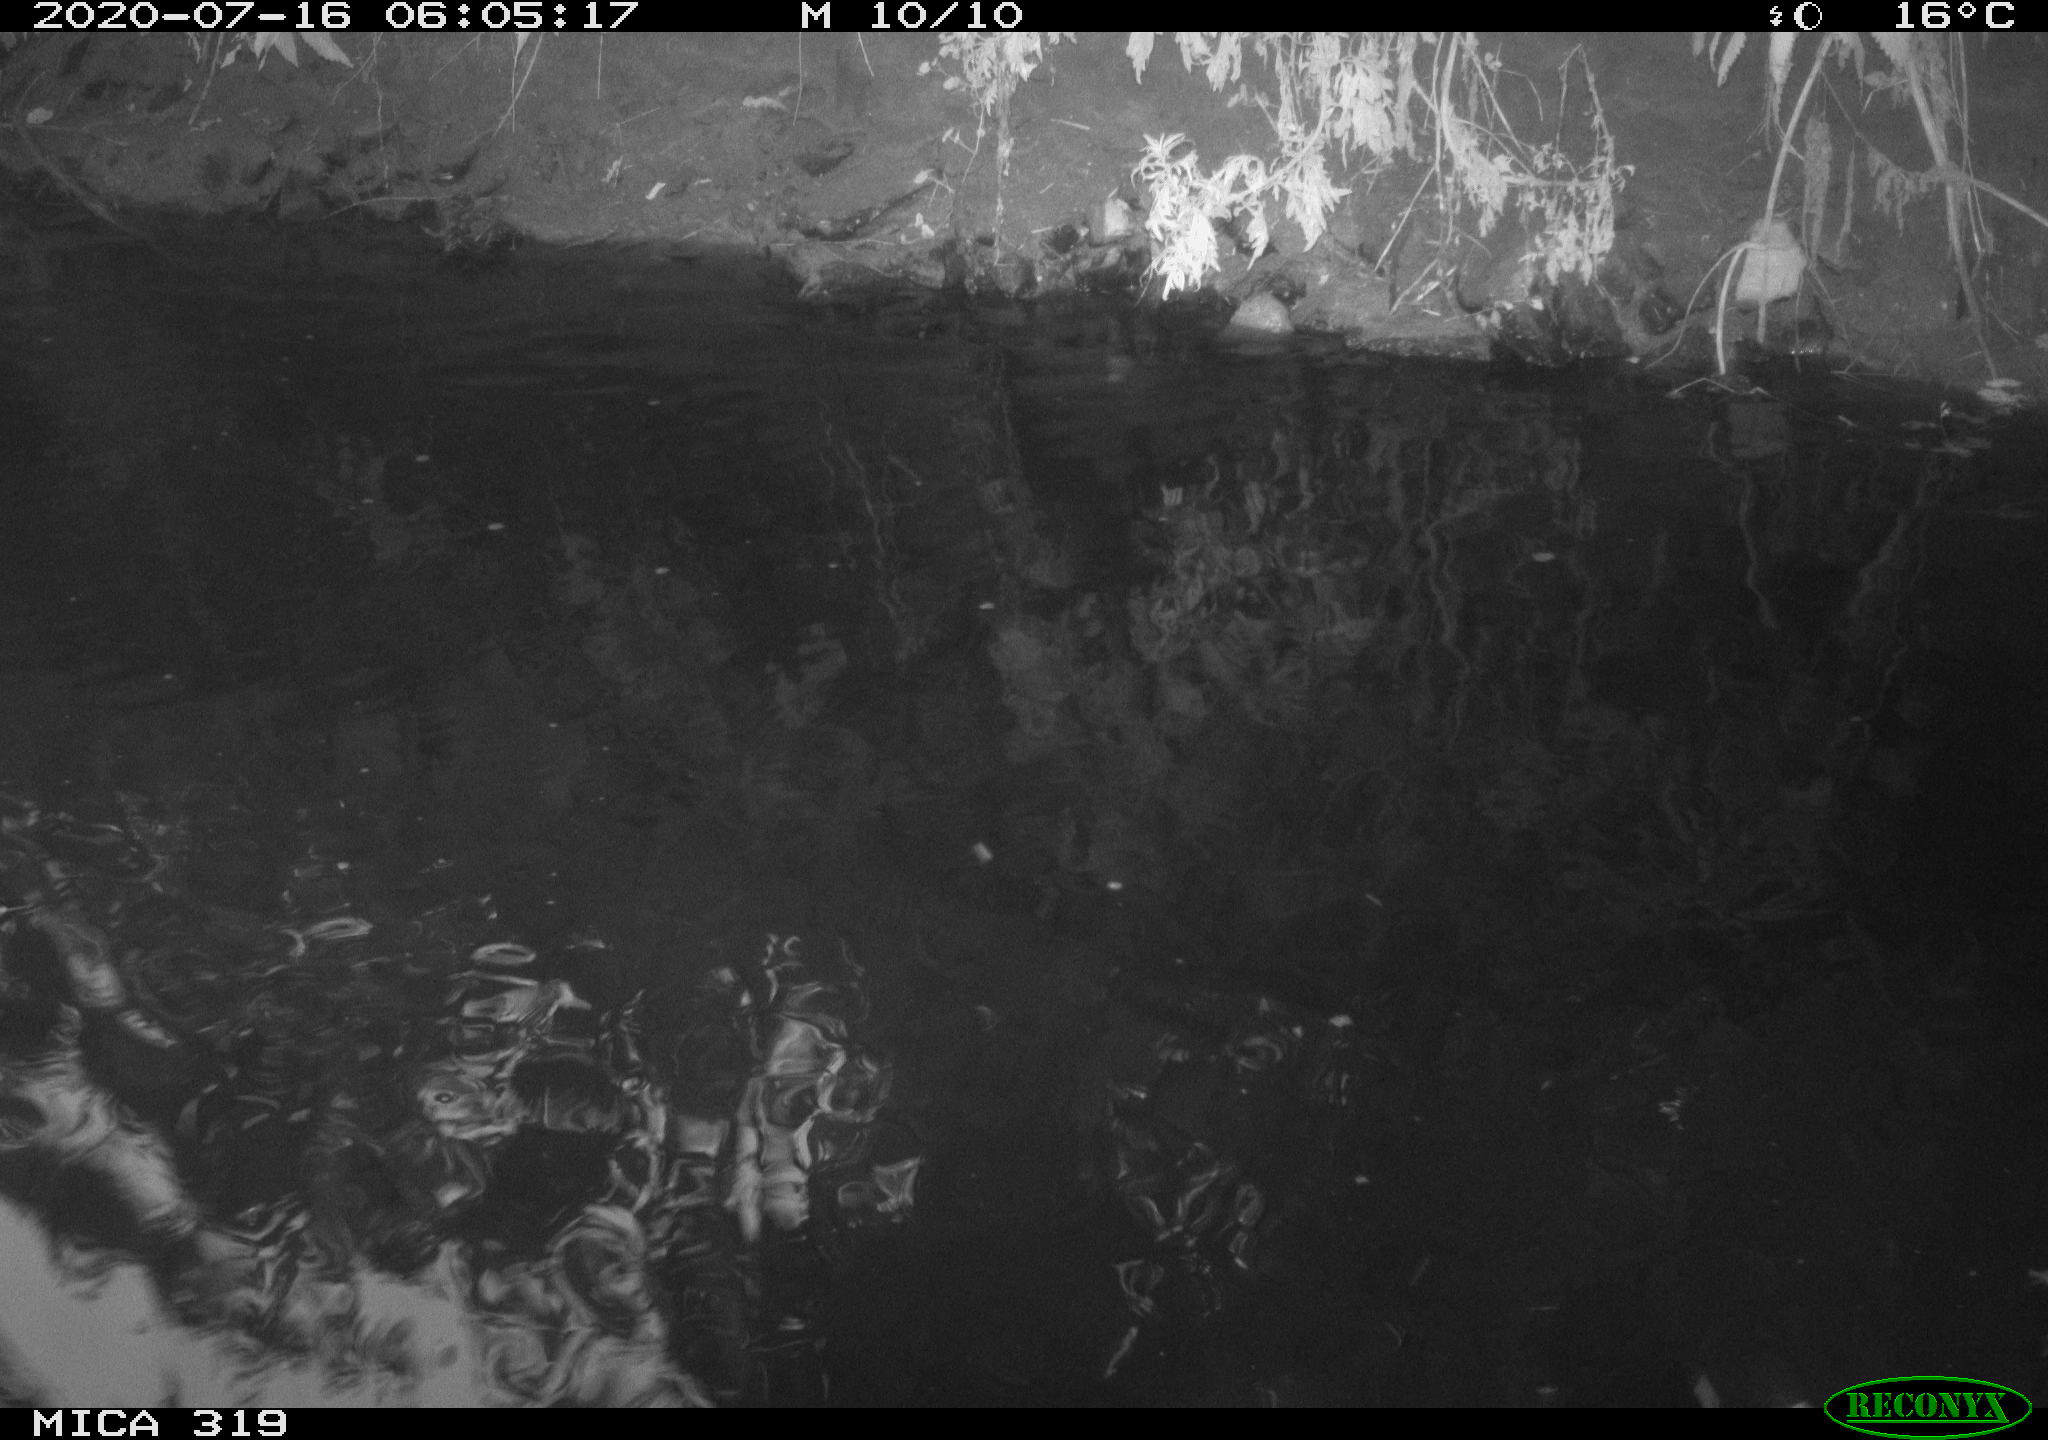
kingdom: Animalia
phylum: Chordata
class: Aves
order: Anseriformes
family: Anatidae
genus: Anas
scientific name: Anas platyrhynchos
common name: Mallard
